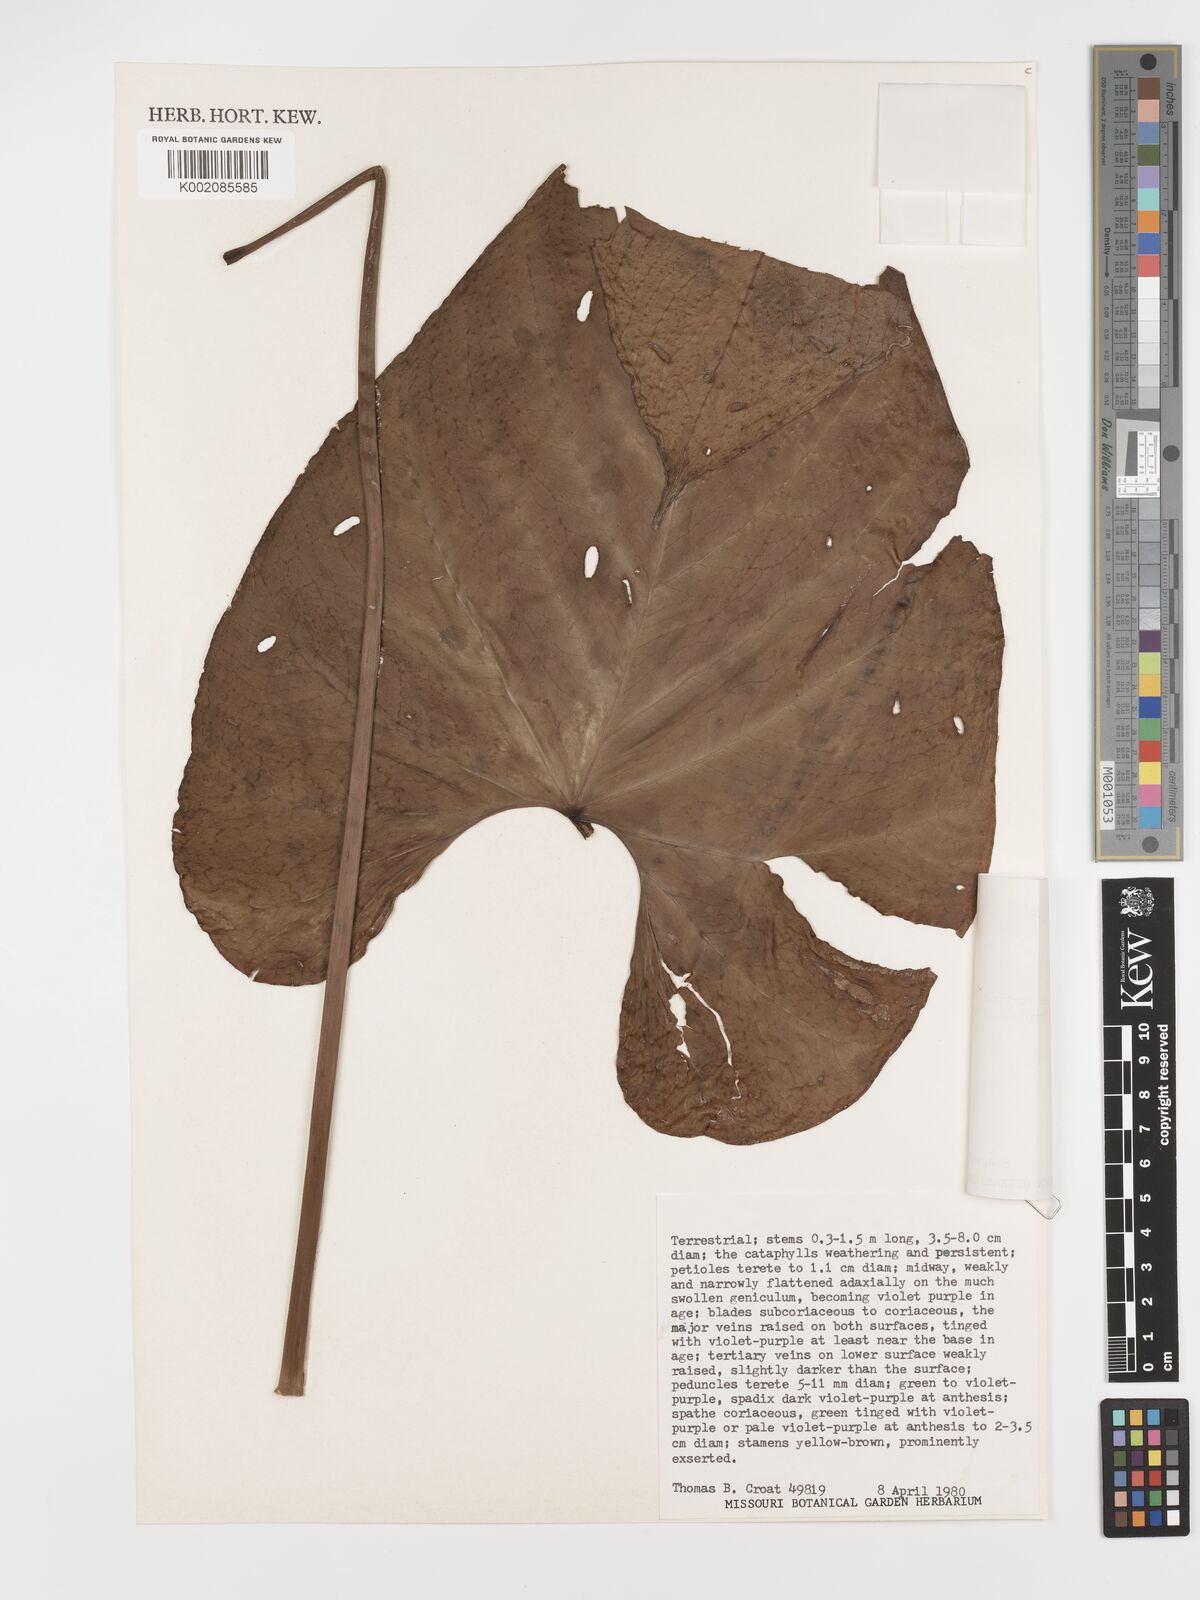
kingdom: Plantae
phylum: Tracheophyta
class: Liliopsida
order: Alismatales
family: Araceae
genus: Anthurium
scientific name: Anthurium antonioanum
